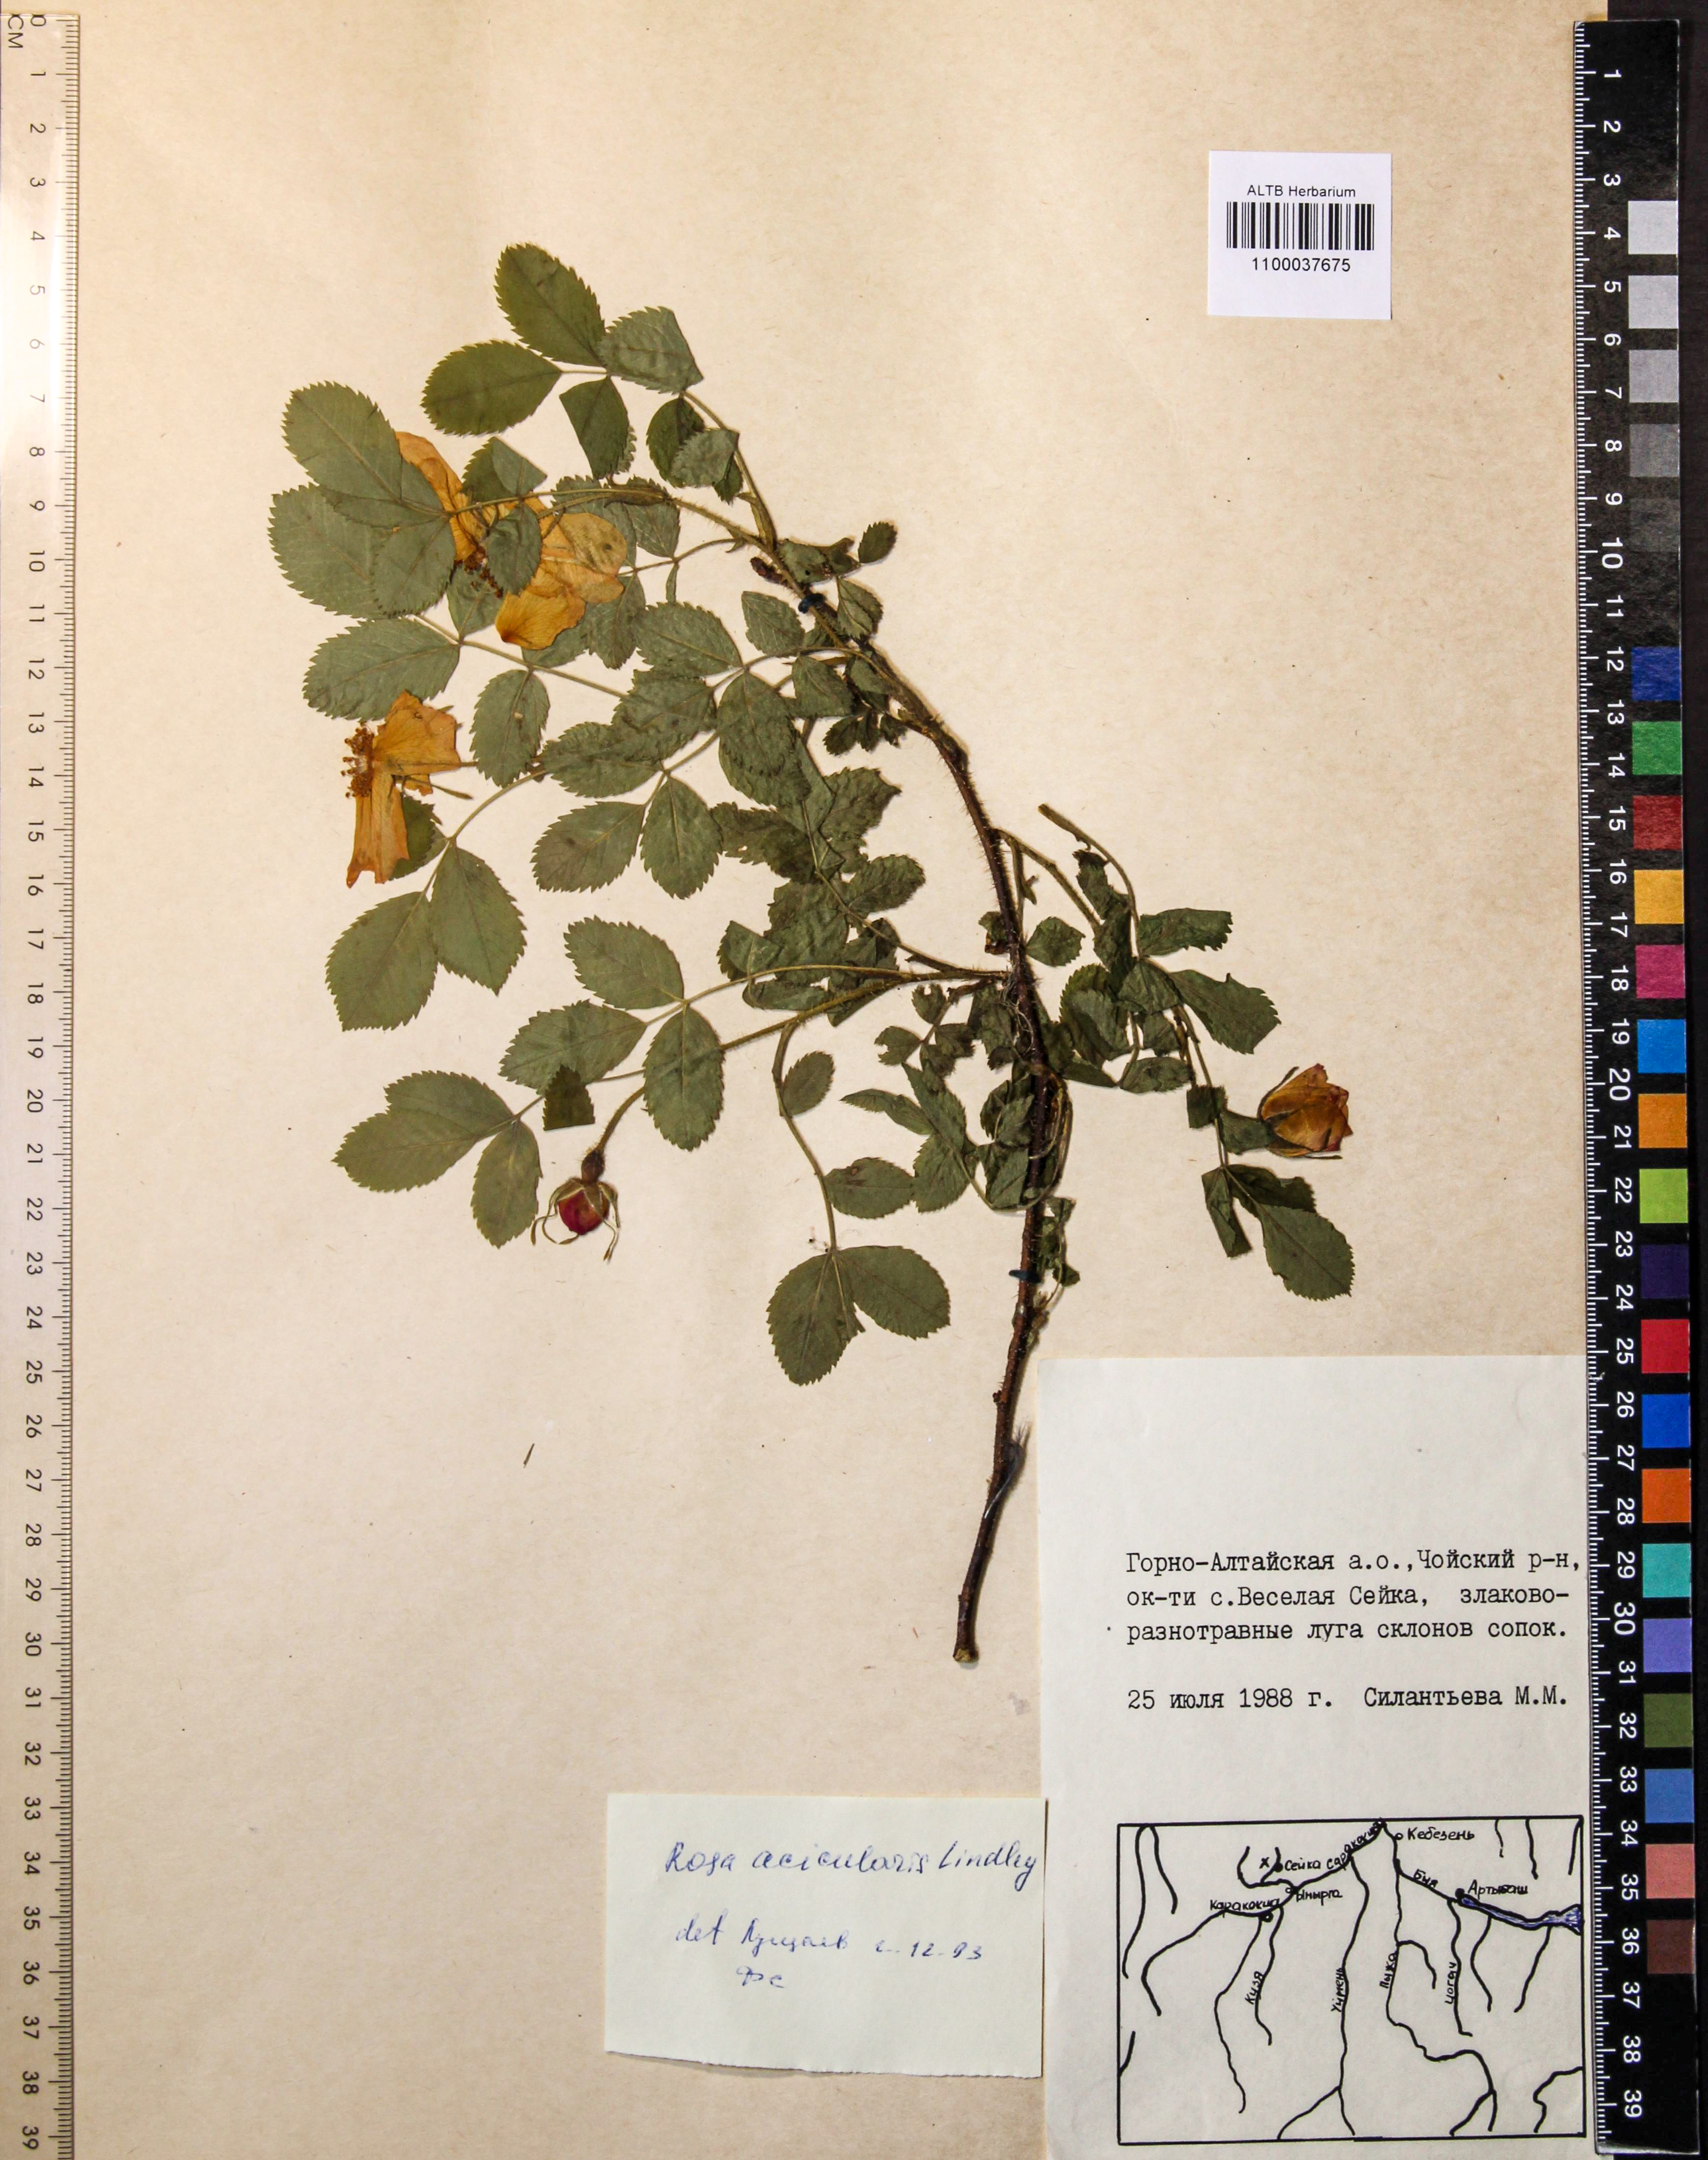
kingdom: Plantae
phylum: Tracheophyta
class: Magnoliopsida
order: Rosales
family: Rosaceae
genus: Rosa
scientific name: Rosa acicularis
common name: Prickly rose
